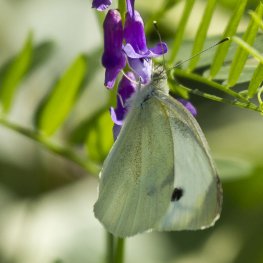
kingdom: Animalia
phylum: Arthropoda
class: Insecta
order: Lepidoptera
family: Pieridae
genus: Pieris
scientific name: Pieris rapae
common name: Cabbage White
